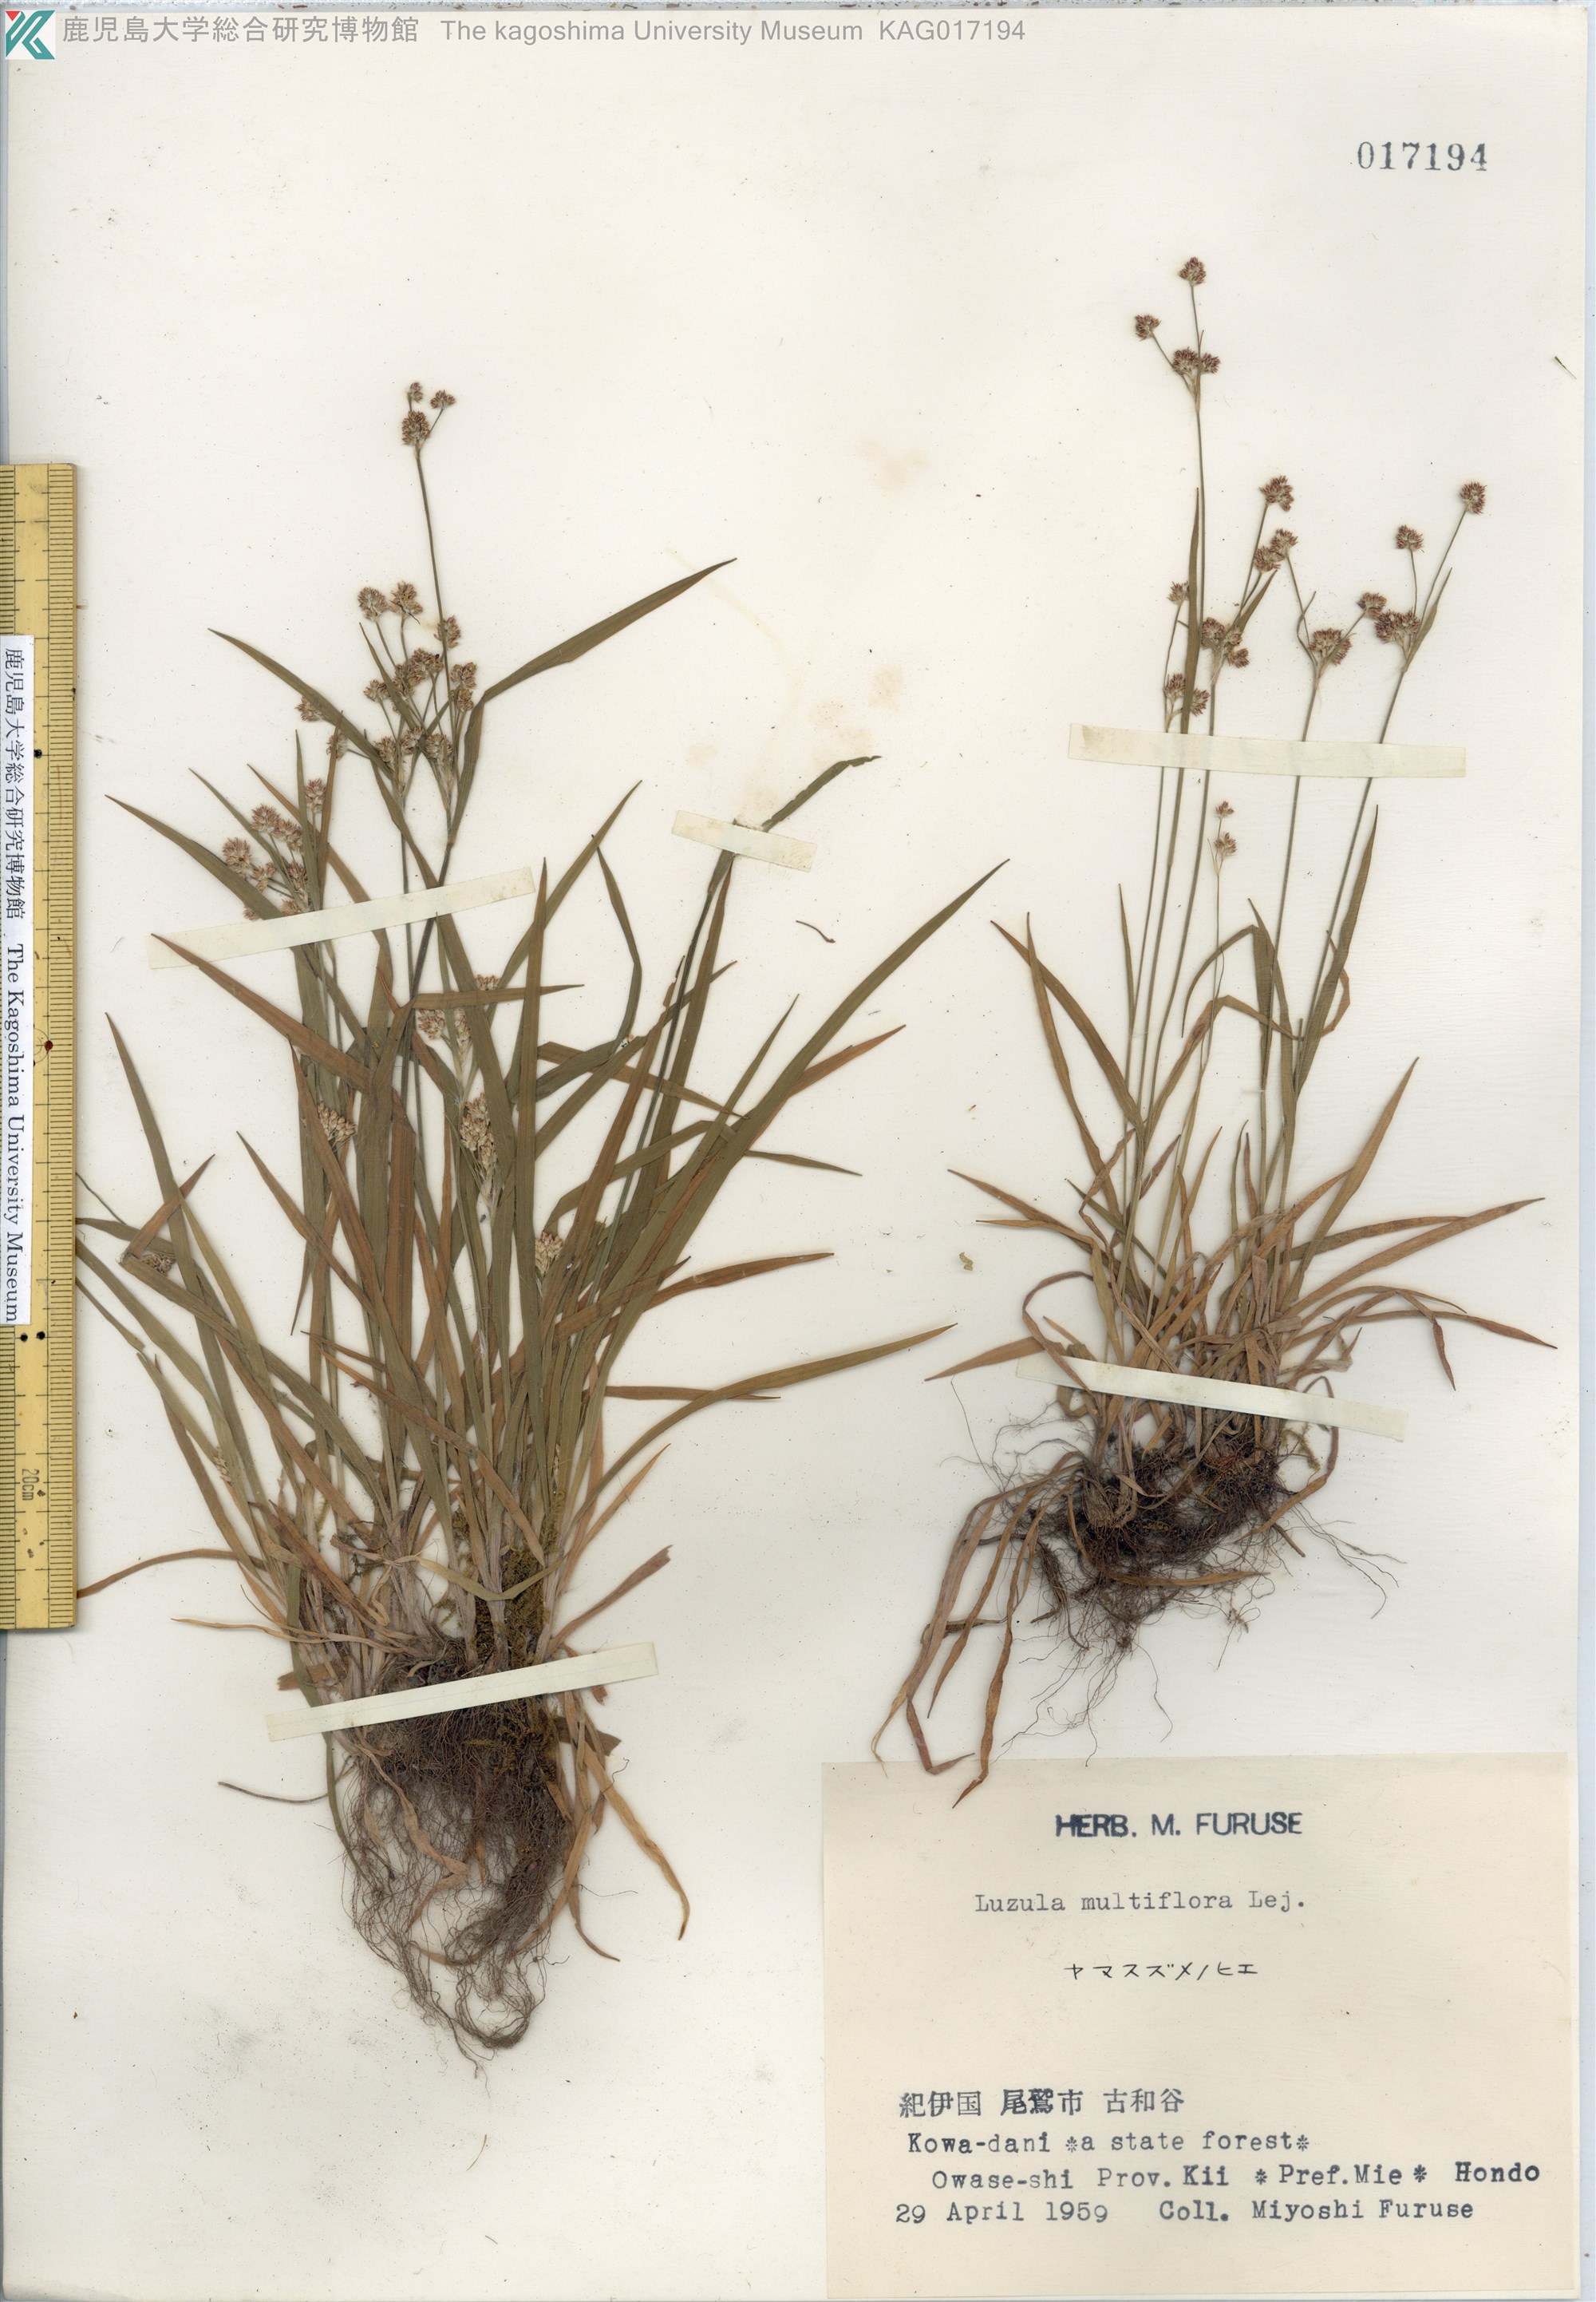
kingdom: Plantae
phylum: Tracheophyta
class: Liliopsida
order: Poales
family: Juncaceae
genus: Luzula
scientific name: Luzula multiflora
